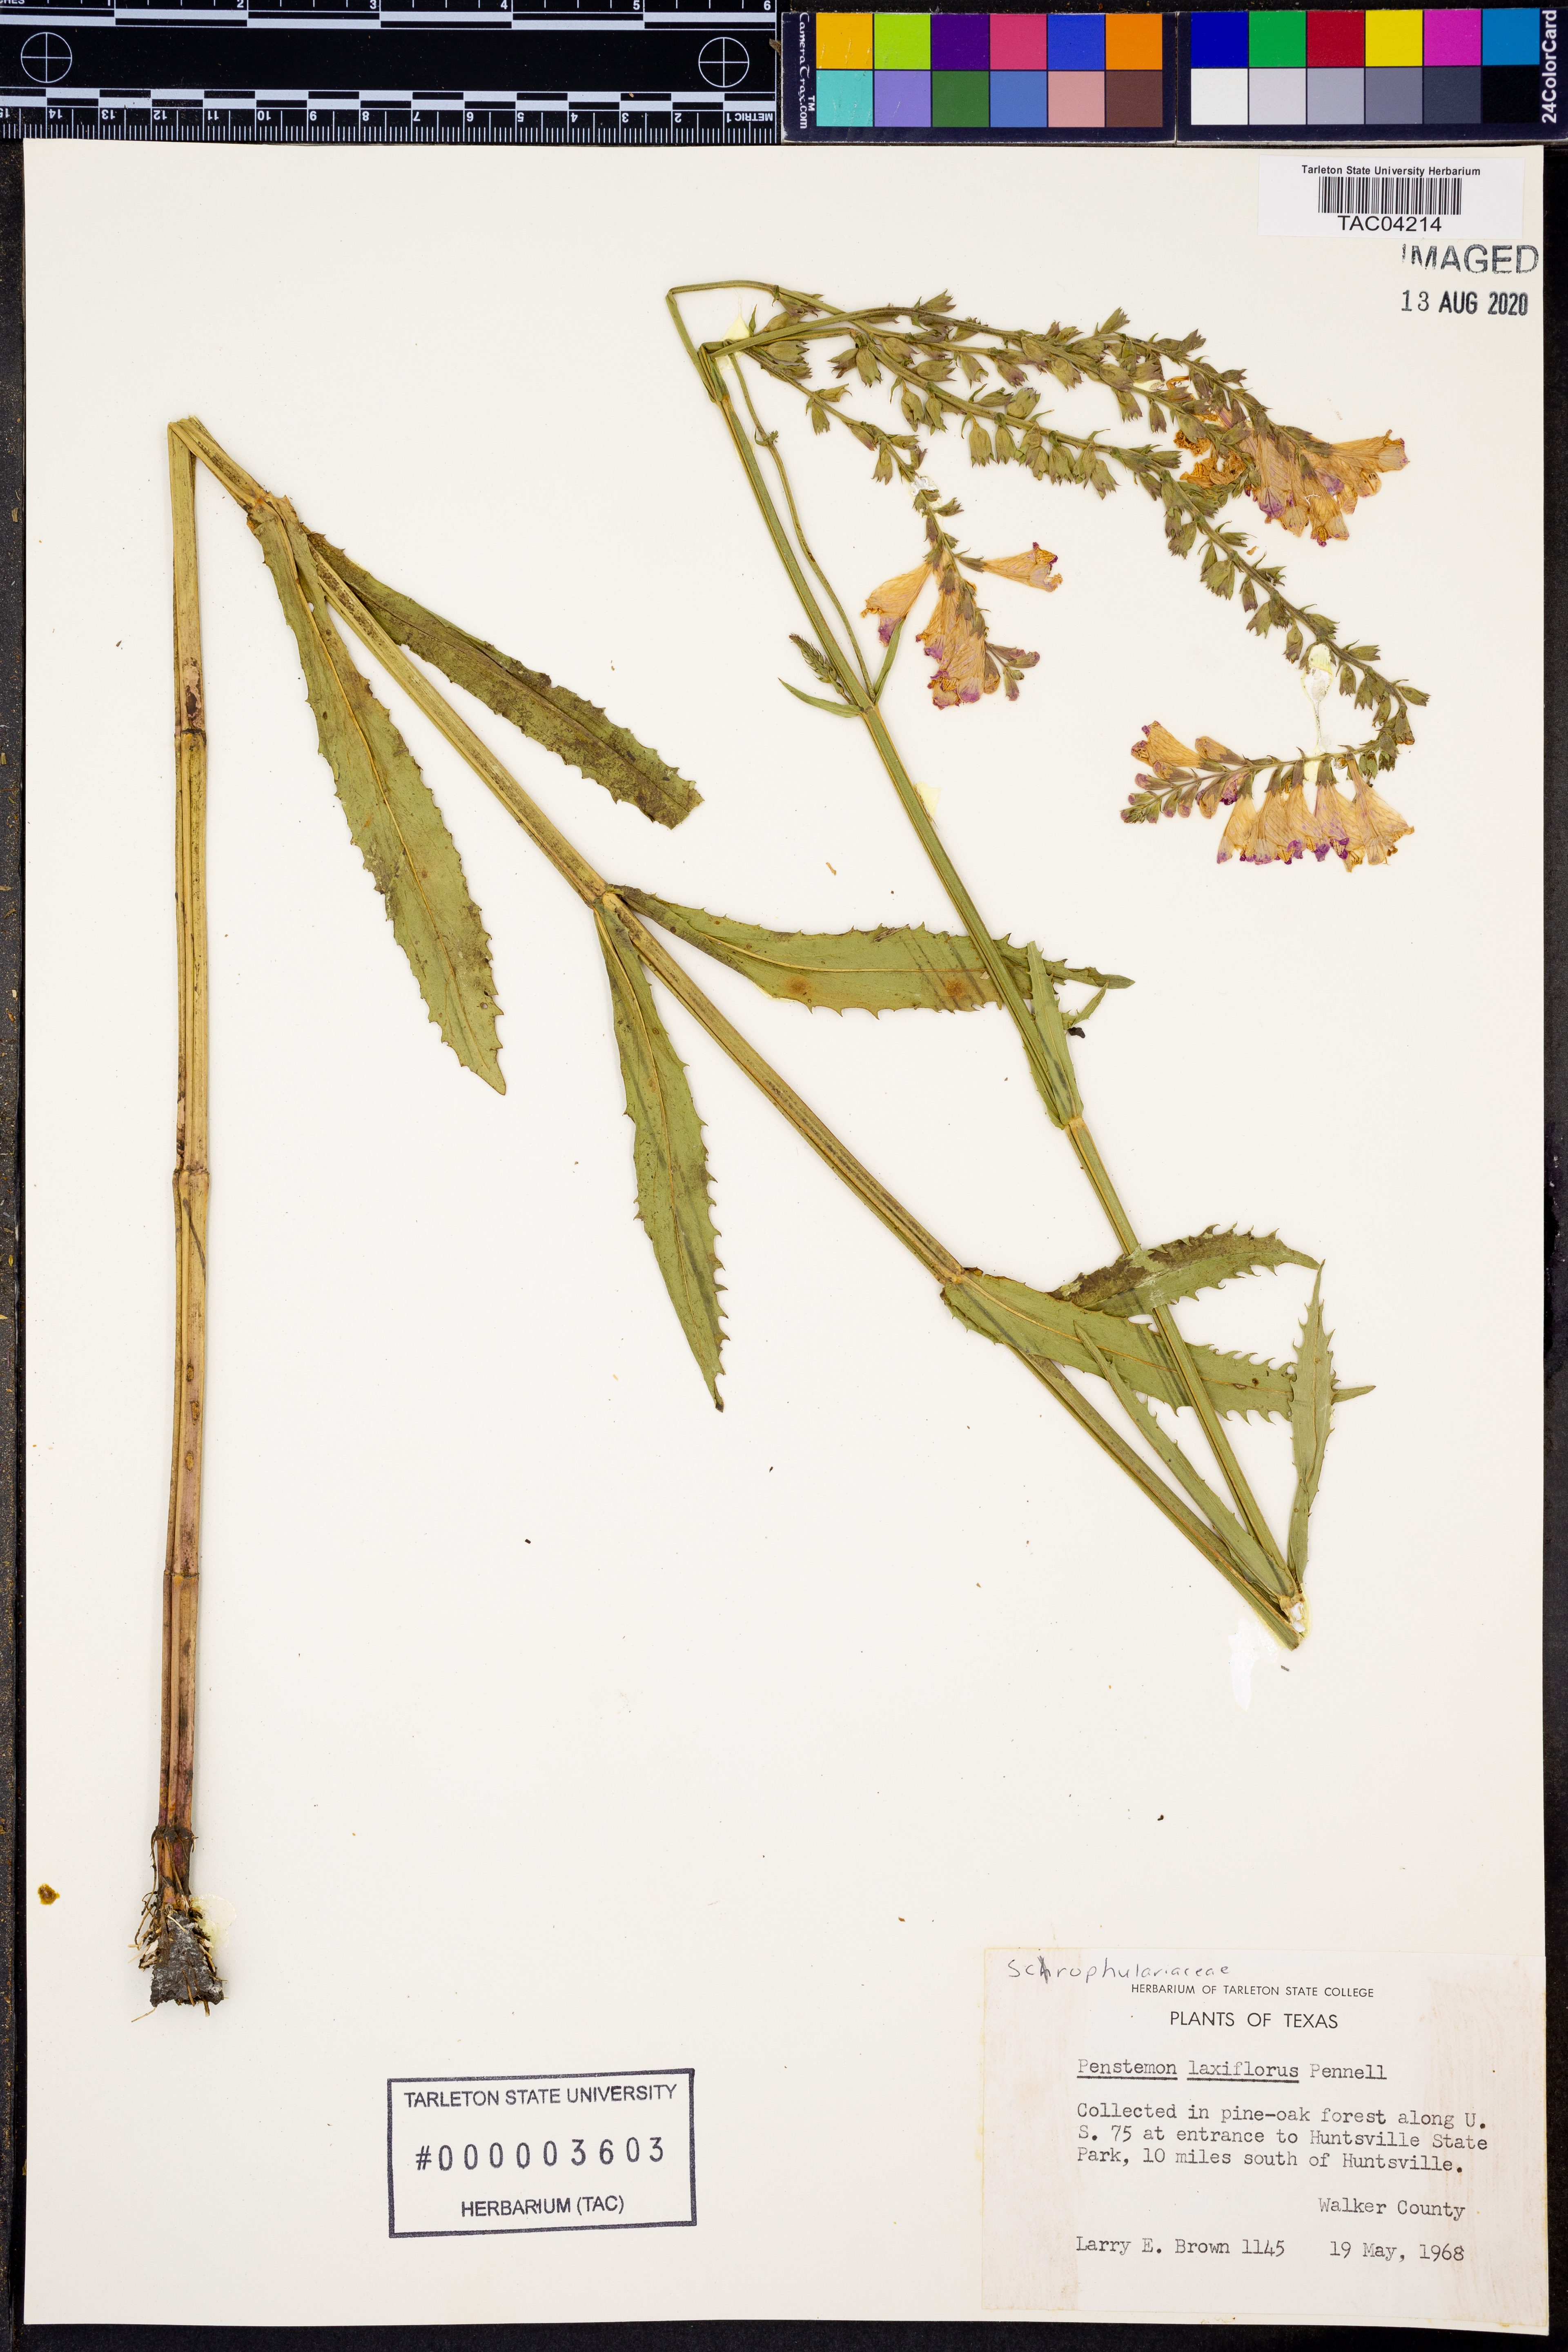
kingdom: Plantae
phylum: Tracheophyta
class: Magnoliopsida
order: Lamiales
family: Plantaginaceae
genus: Penstemon
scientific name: Penstemon laxiflorus
